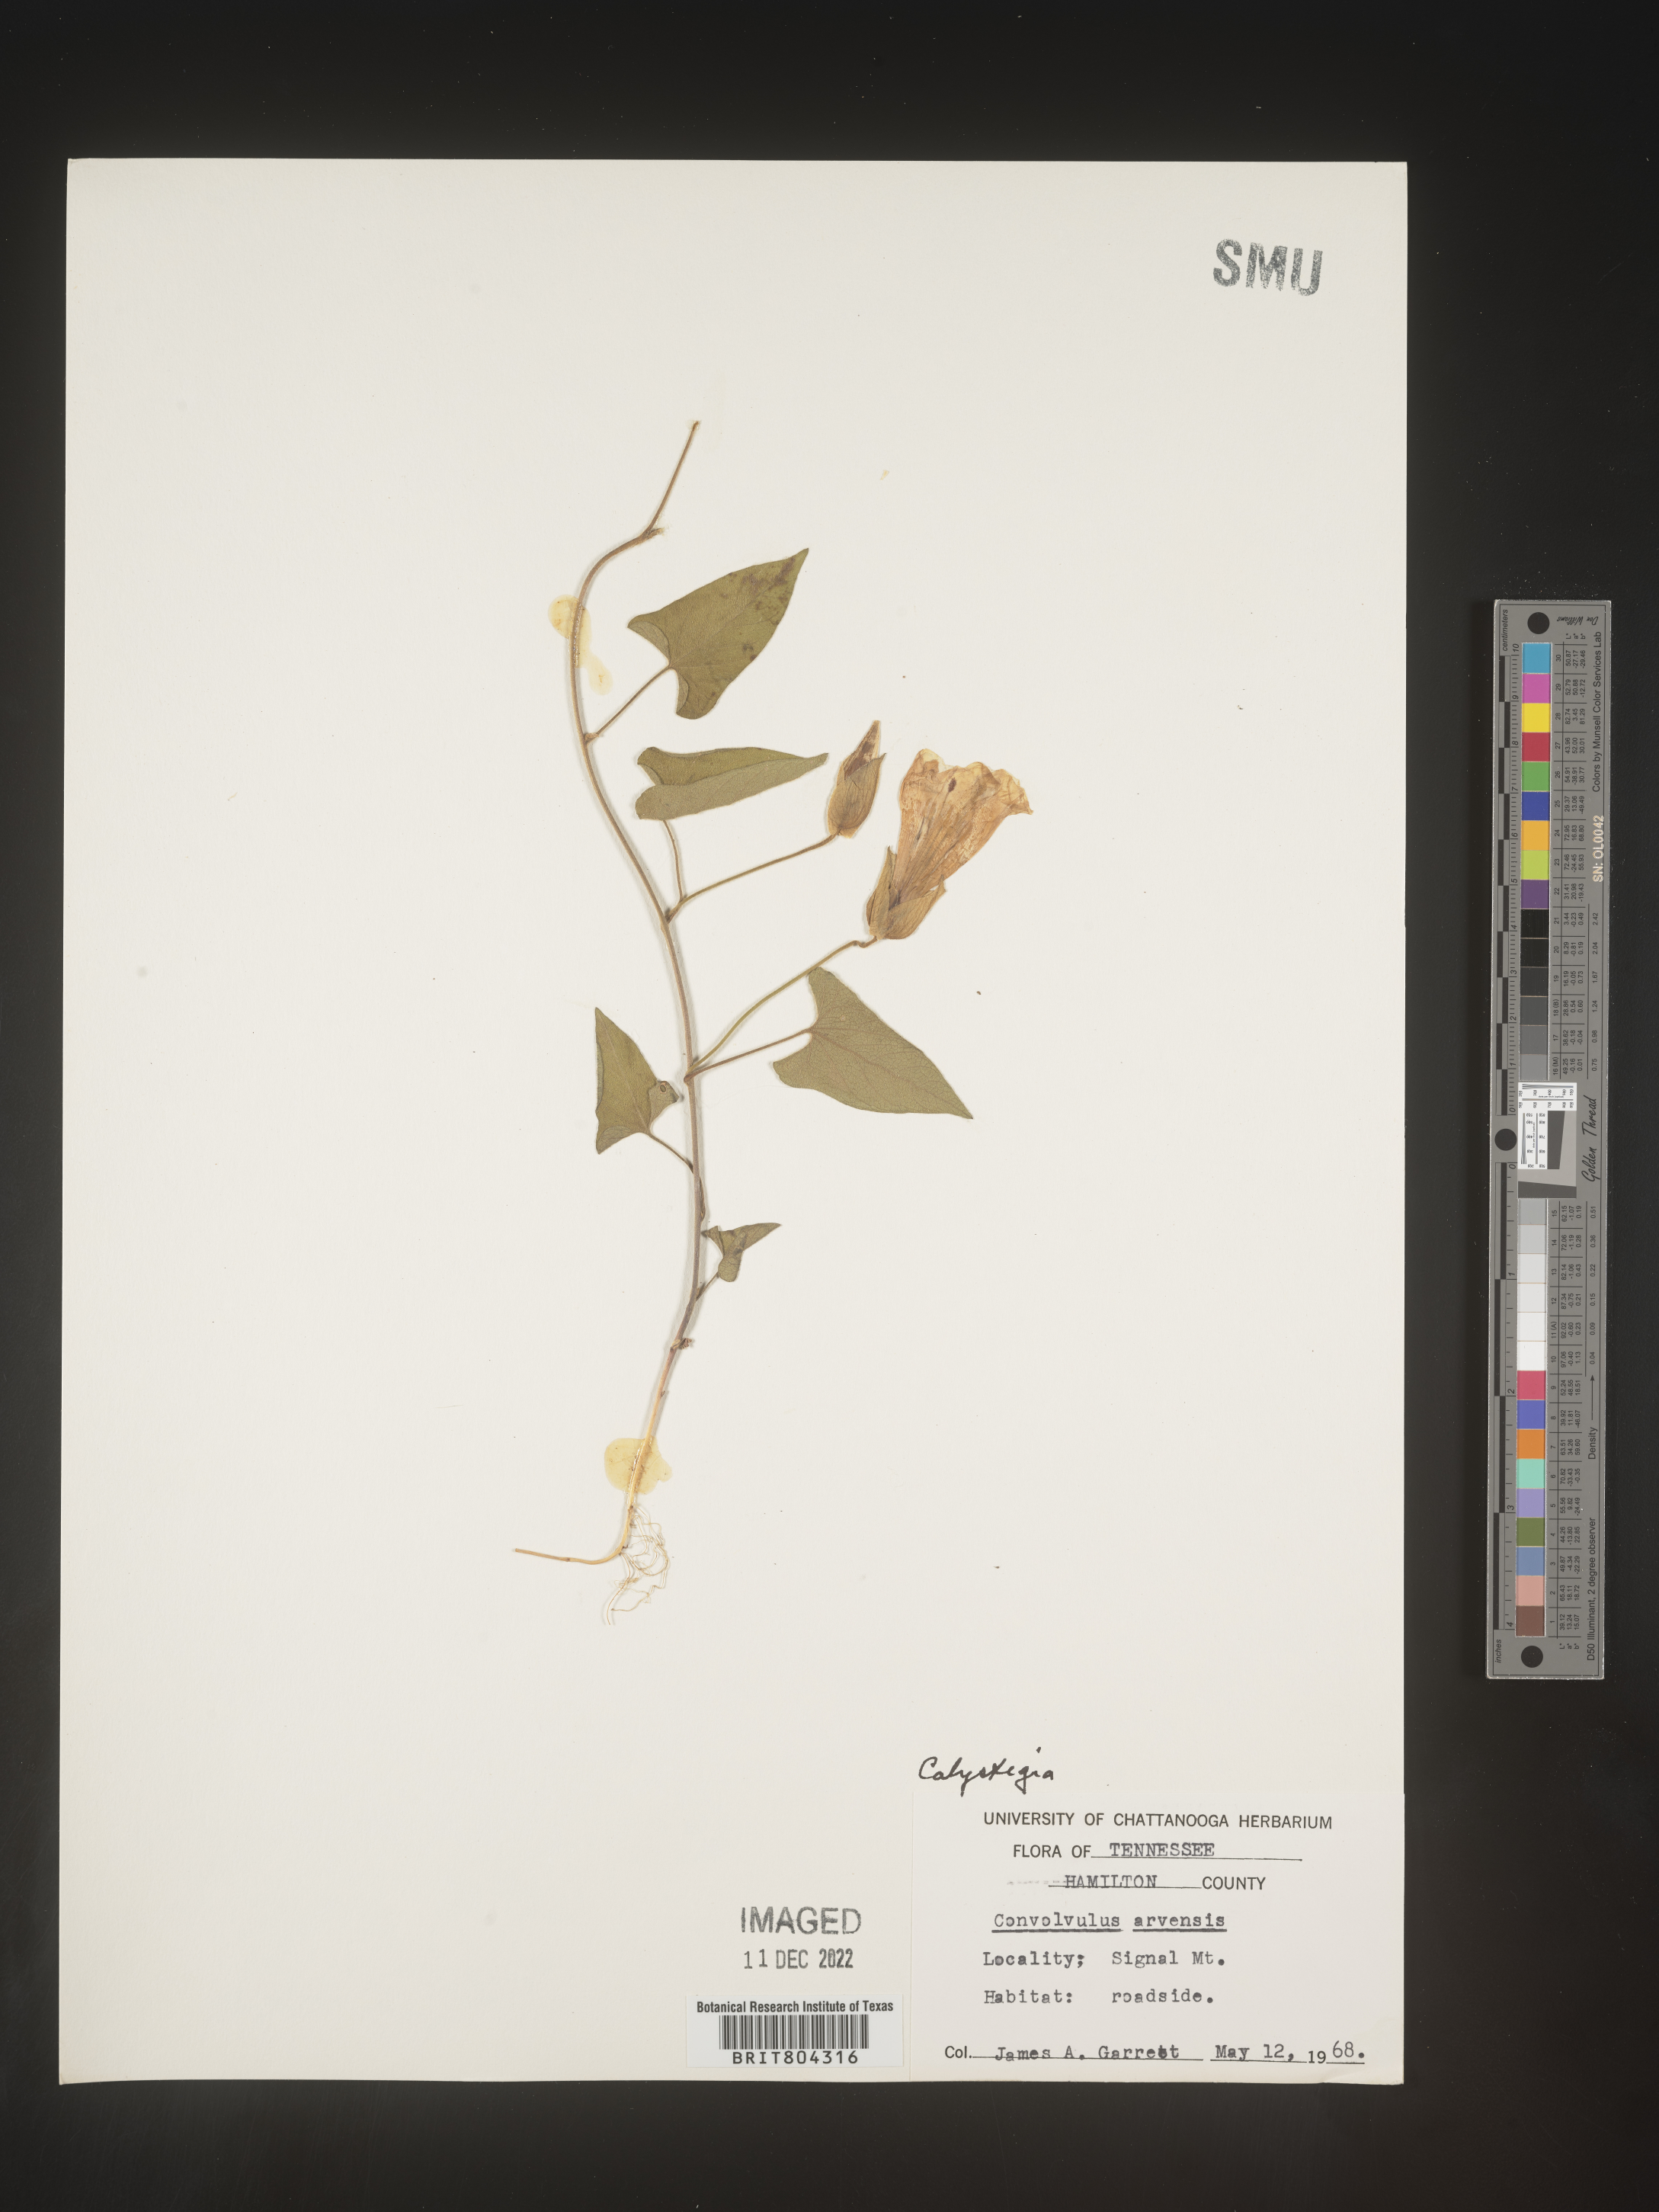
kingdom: Plantae
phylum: Tracheophyta
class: Magnoliopsida
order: Solanales
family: Convolvulaceae
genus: Calystegia
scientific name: Calystegia
